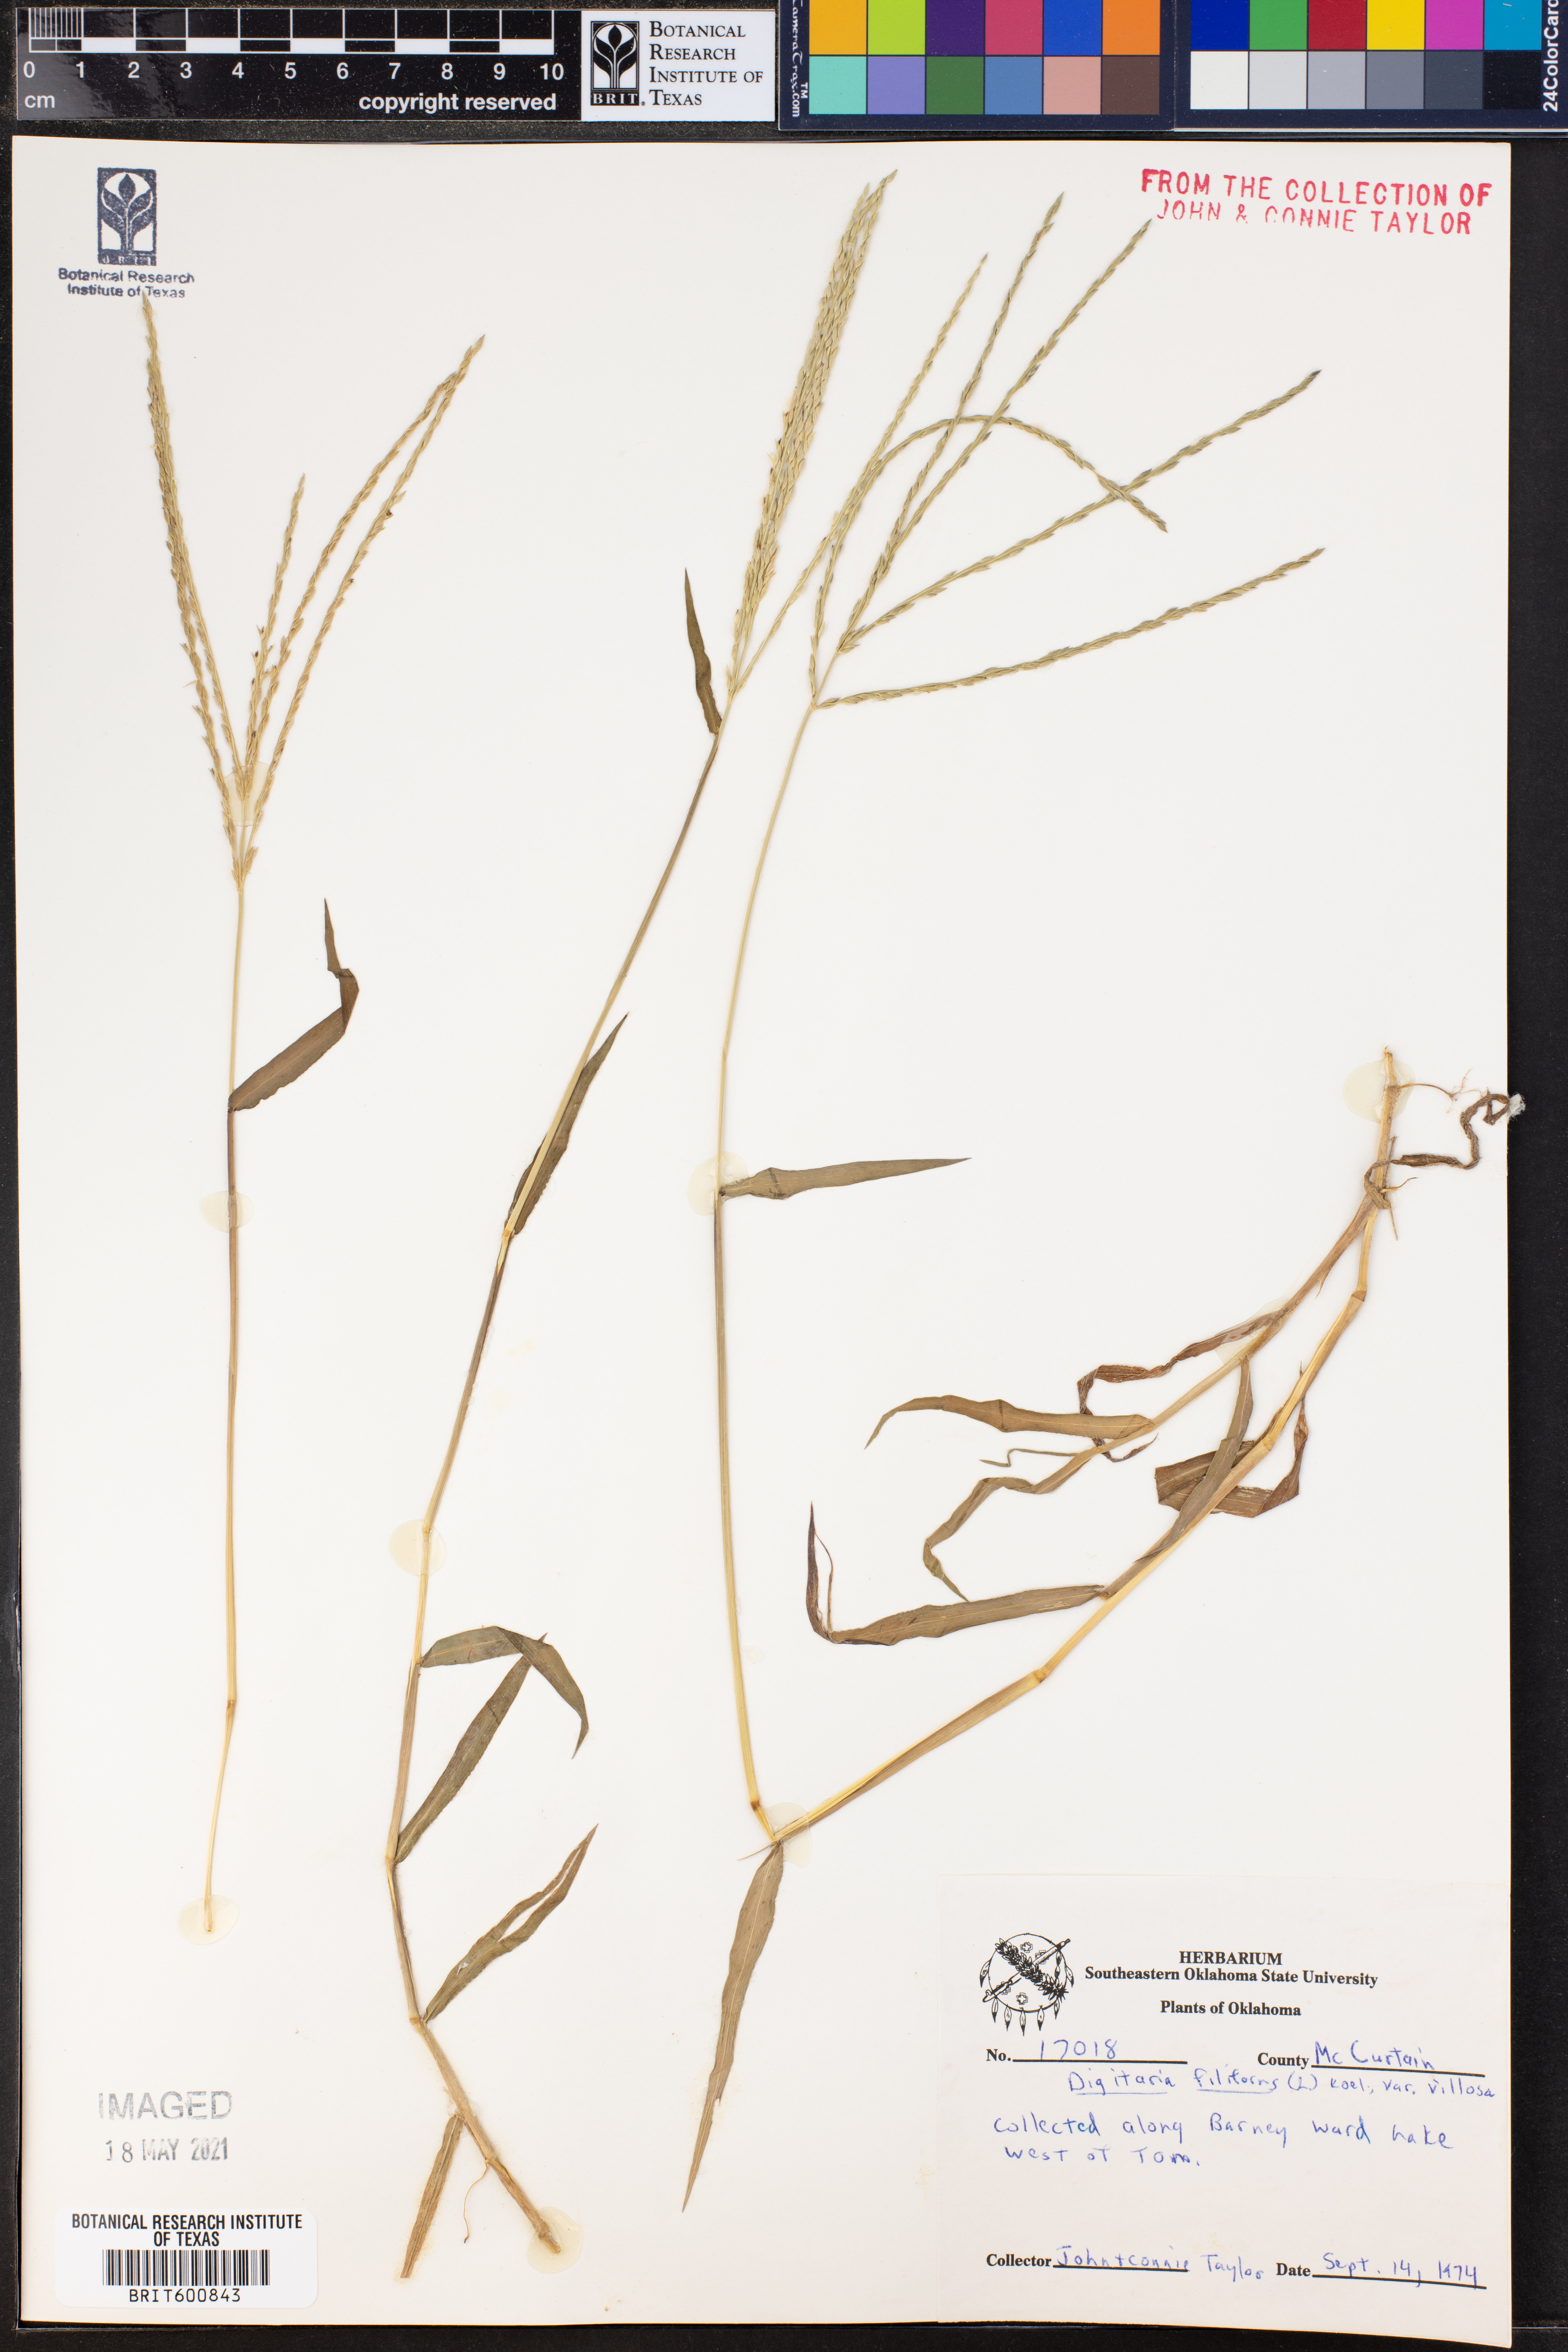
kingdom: Plantae
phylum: Tracheophyta
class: Liliopsida
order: Poales
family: Poaceae
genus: Digitaria
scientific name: Digitaria villosa
